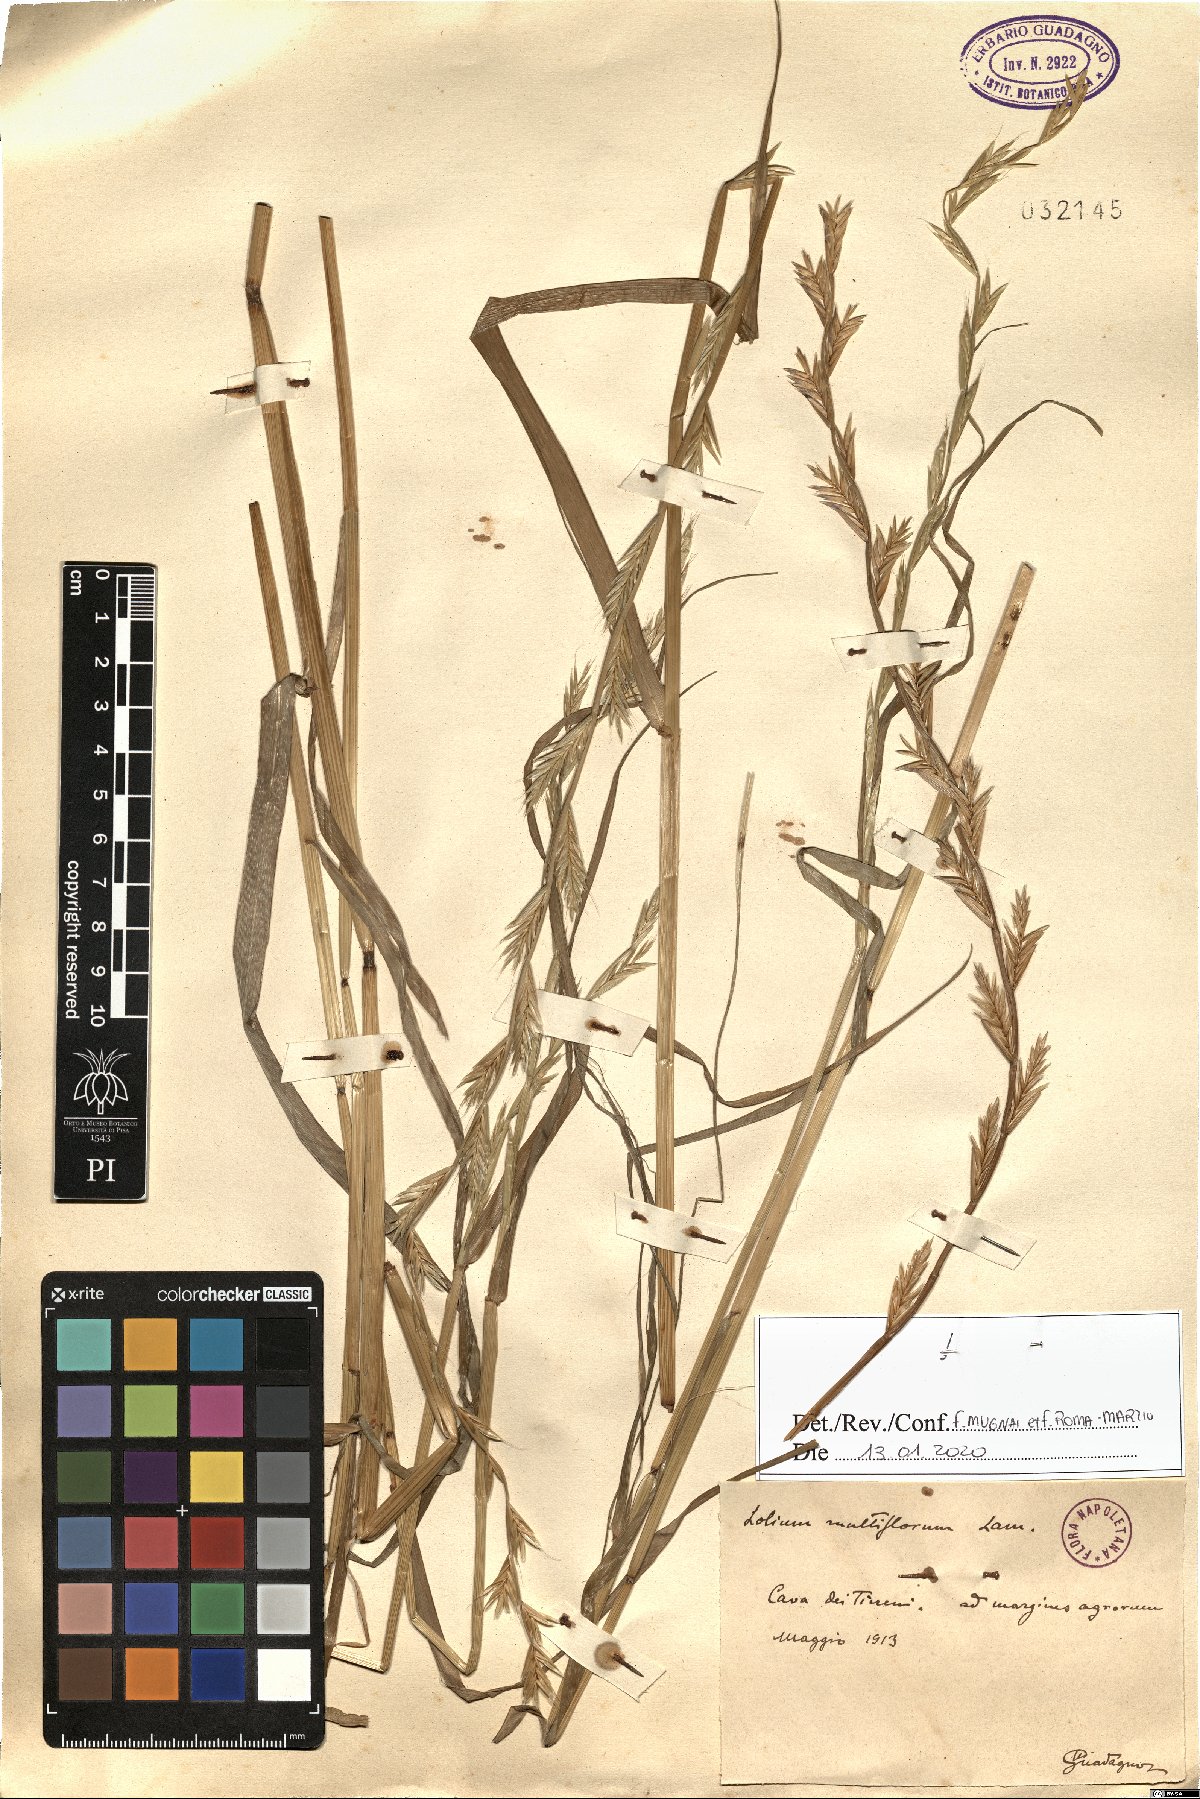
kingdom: Plantae
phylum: Tracheophyta
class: Liliopsida
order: Poales
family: Poaceae
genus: Lolium
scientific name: Lolium multiflorum
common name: Annual ryegrass
